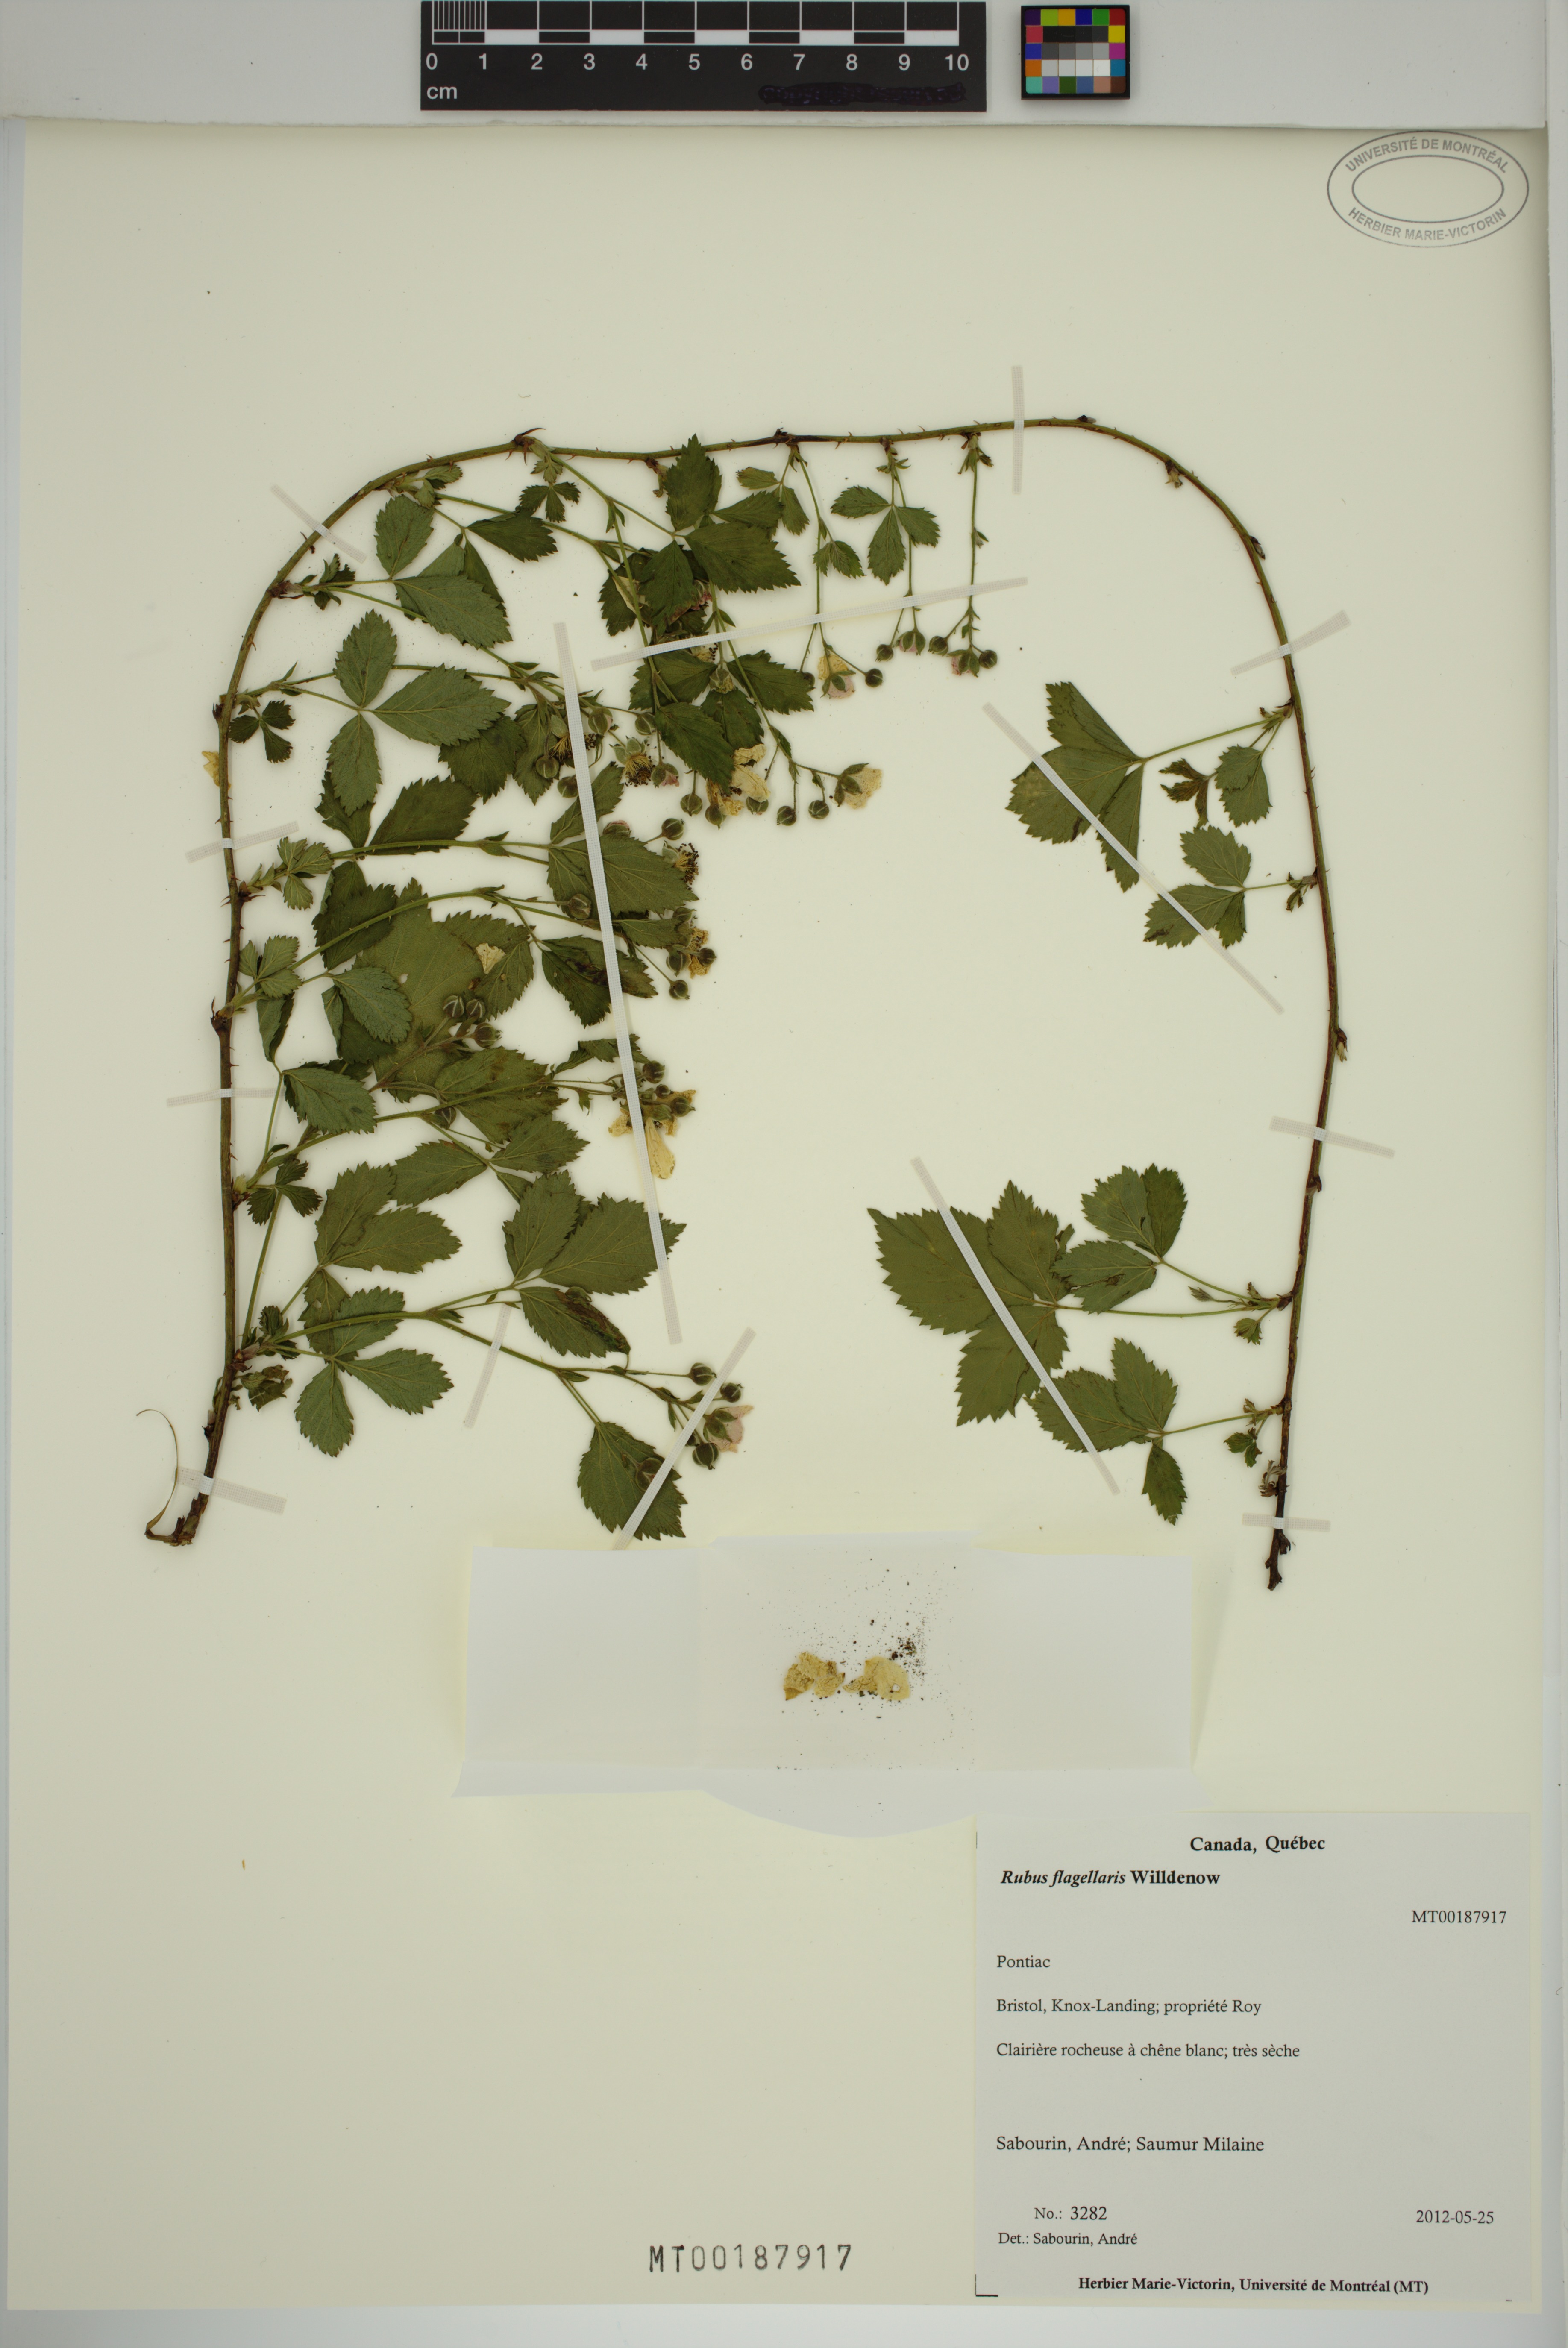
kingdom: Plantae
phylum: Tracheophyta
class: Magnoliopsida
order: Rosales
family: Rosaceae
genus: Rubus
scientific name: Rubus flagellaris
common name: American dewberry
